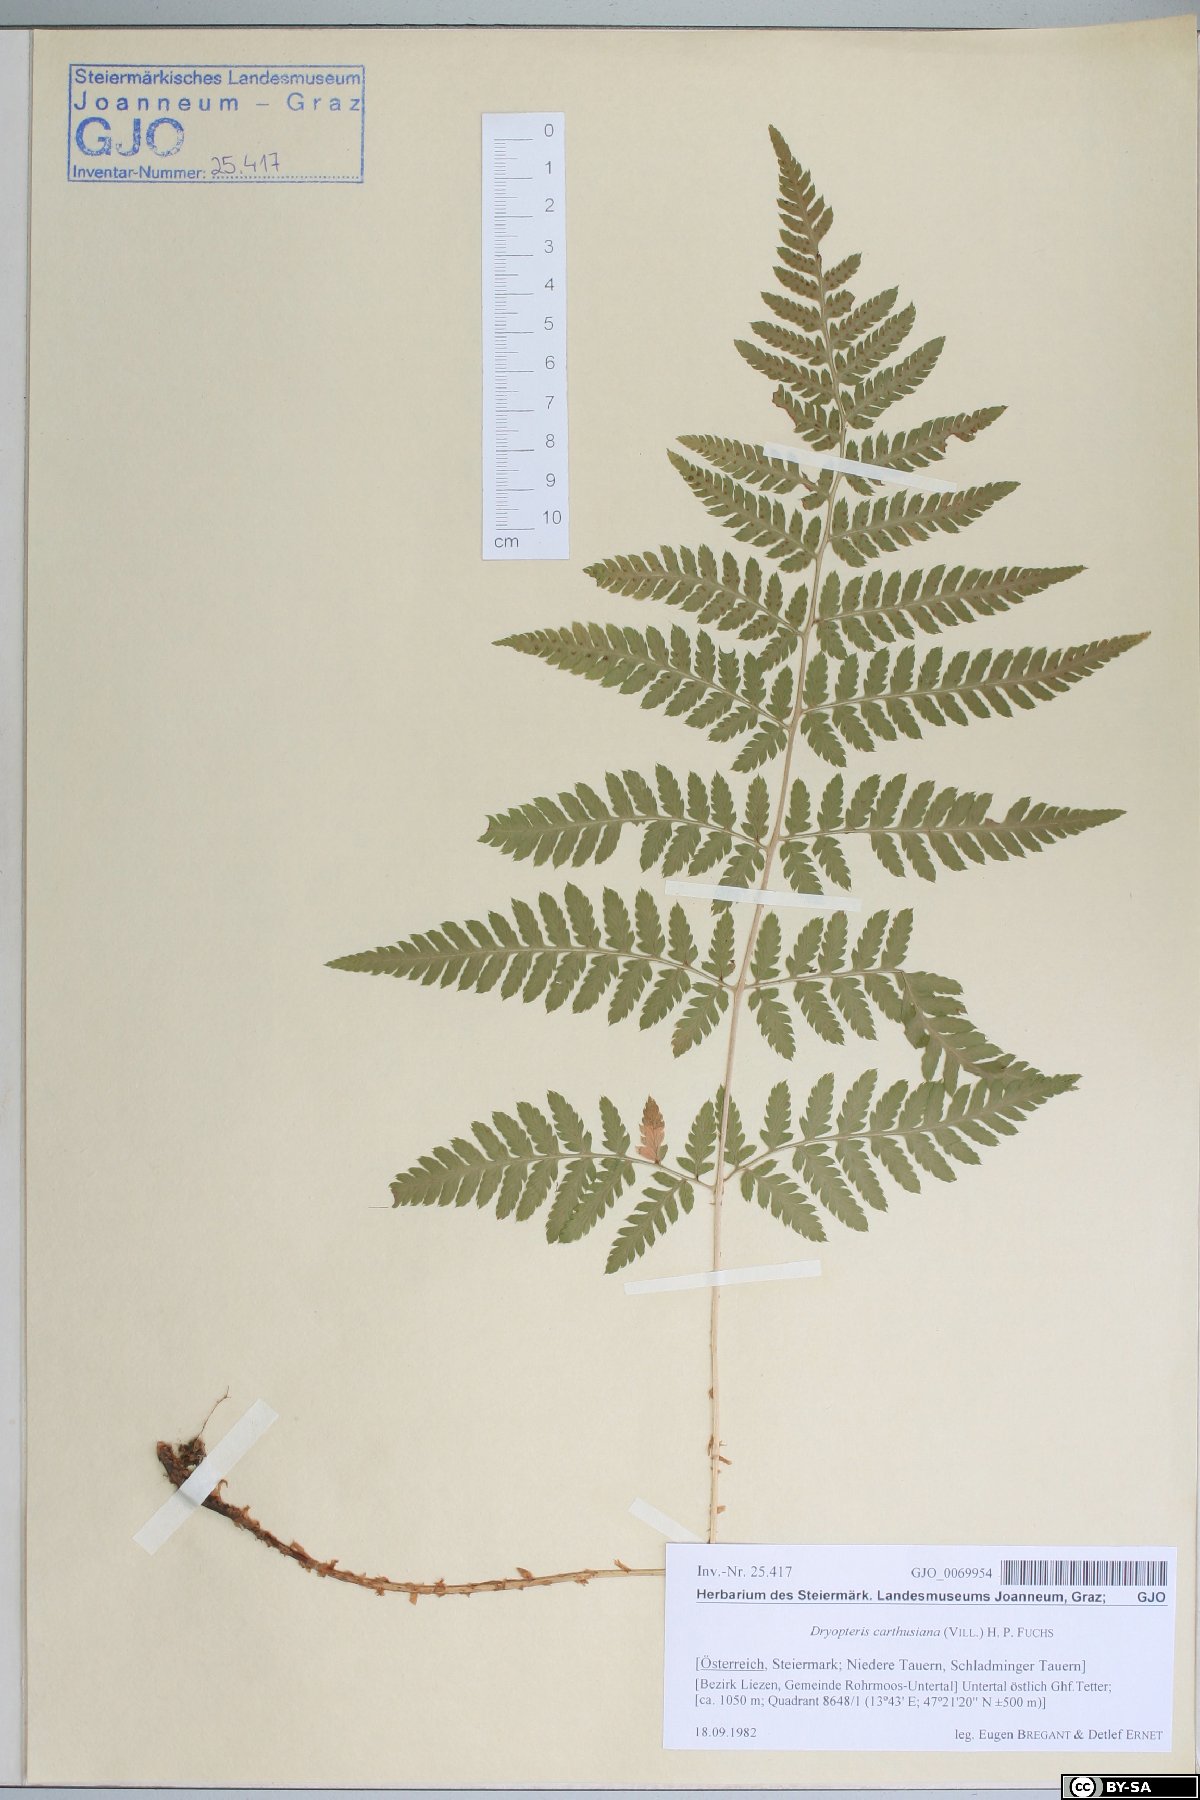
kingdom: Plantae
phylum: Tracheophyta
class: Polypodiopsida
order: Polypodiales
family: Dryopteridaceae
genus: Dryopteris
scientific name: Dryopteris carthusiana
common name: Narrow buckler-fern
